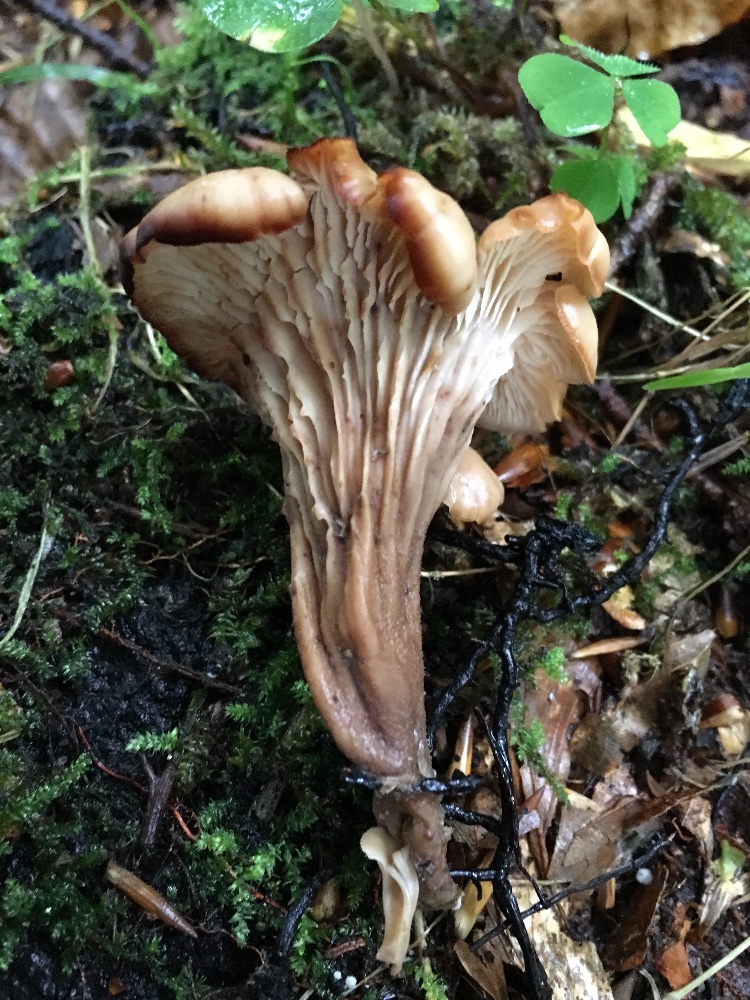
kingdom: Fungi
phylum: Basidiomycota
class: Agaricomycetes
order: Russulales
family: Auriscalpiaceae
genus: Lentinellus
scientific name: Lentinellus cochleatus
